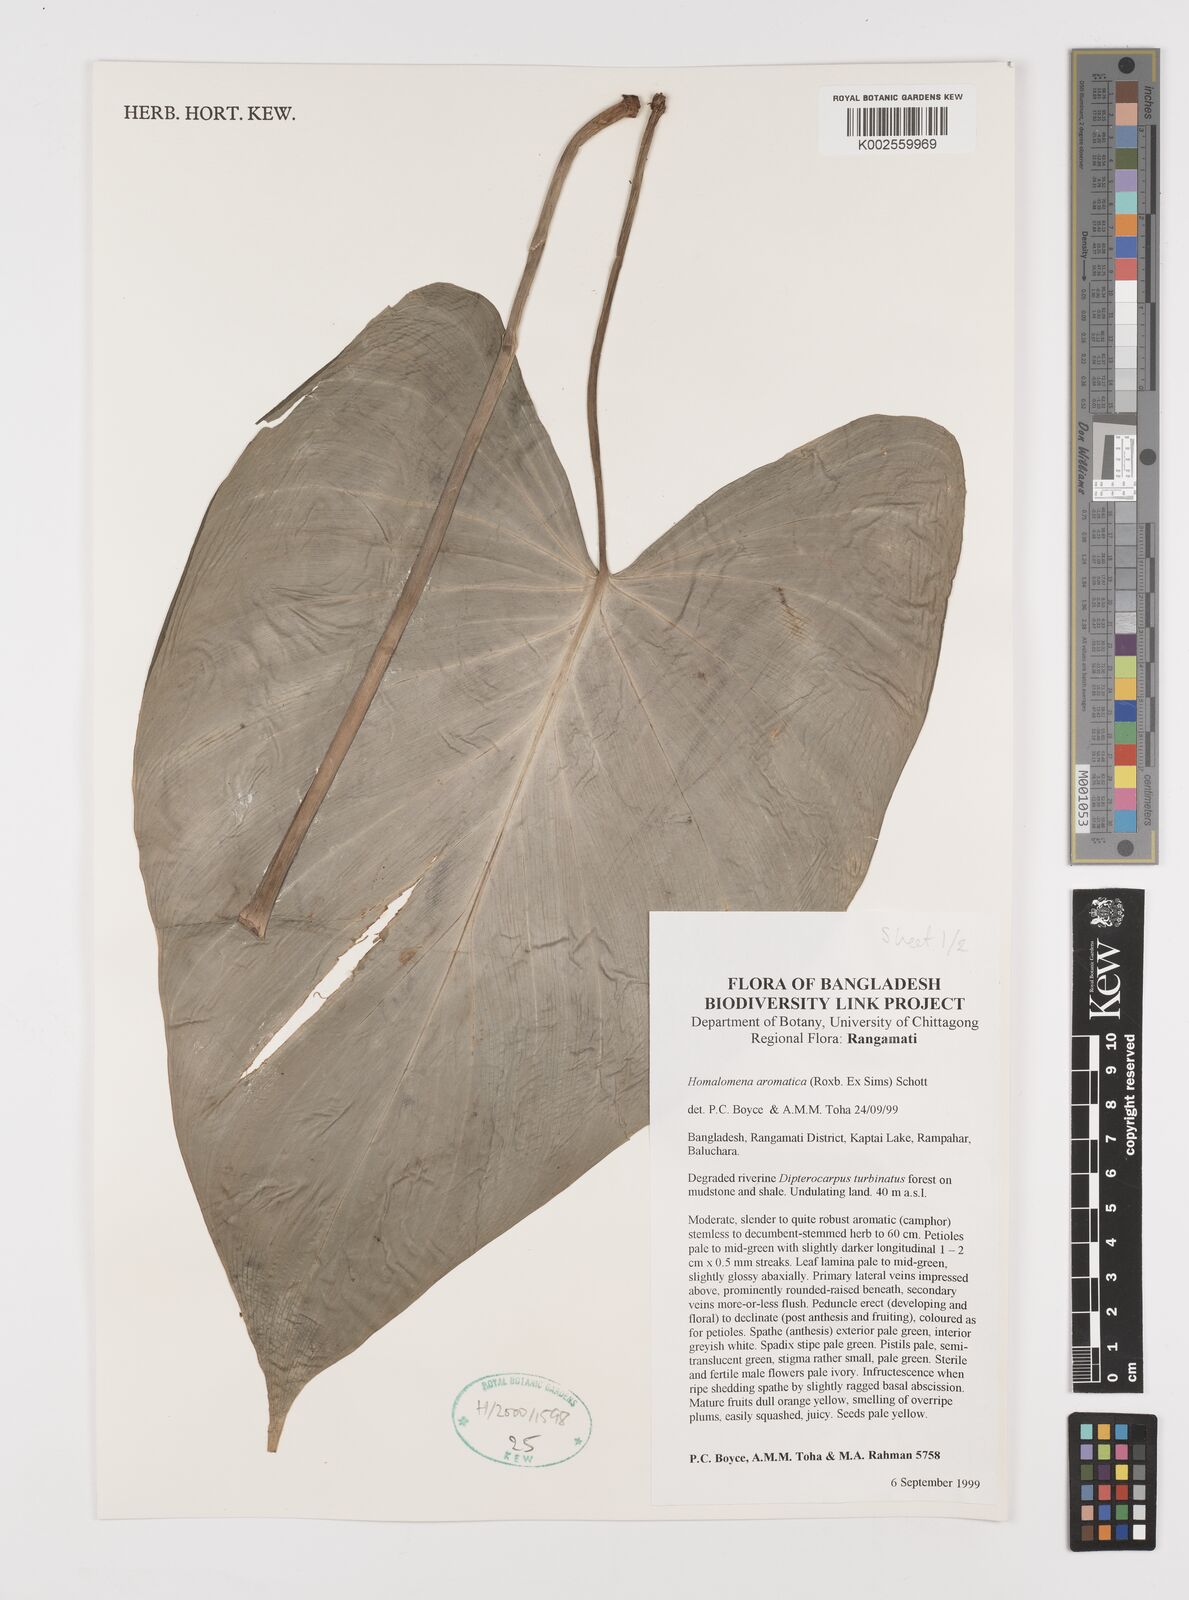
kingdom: Plantae
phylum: Tracheophyta
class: Liliopsida
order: Alismatales
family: Araceae
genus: Homalomena
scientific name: Homalomena aromatica
